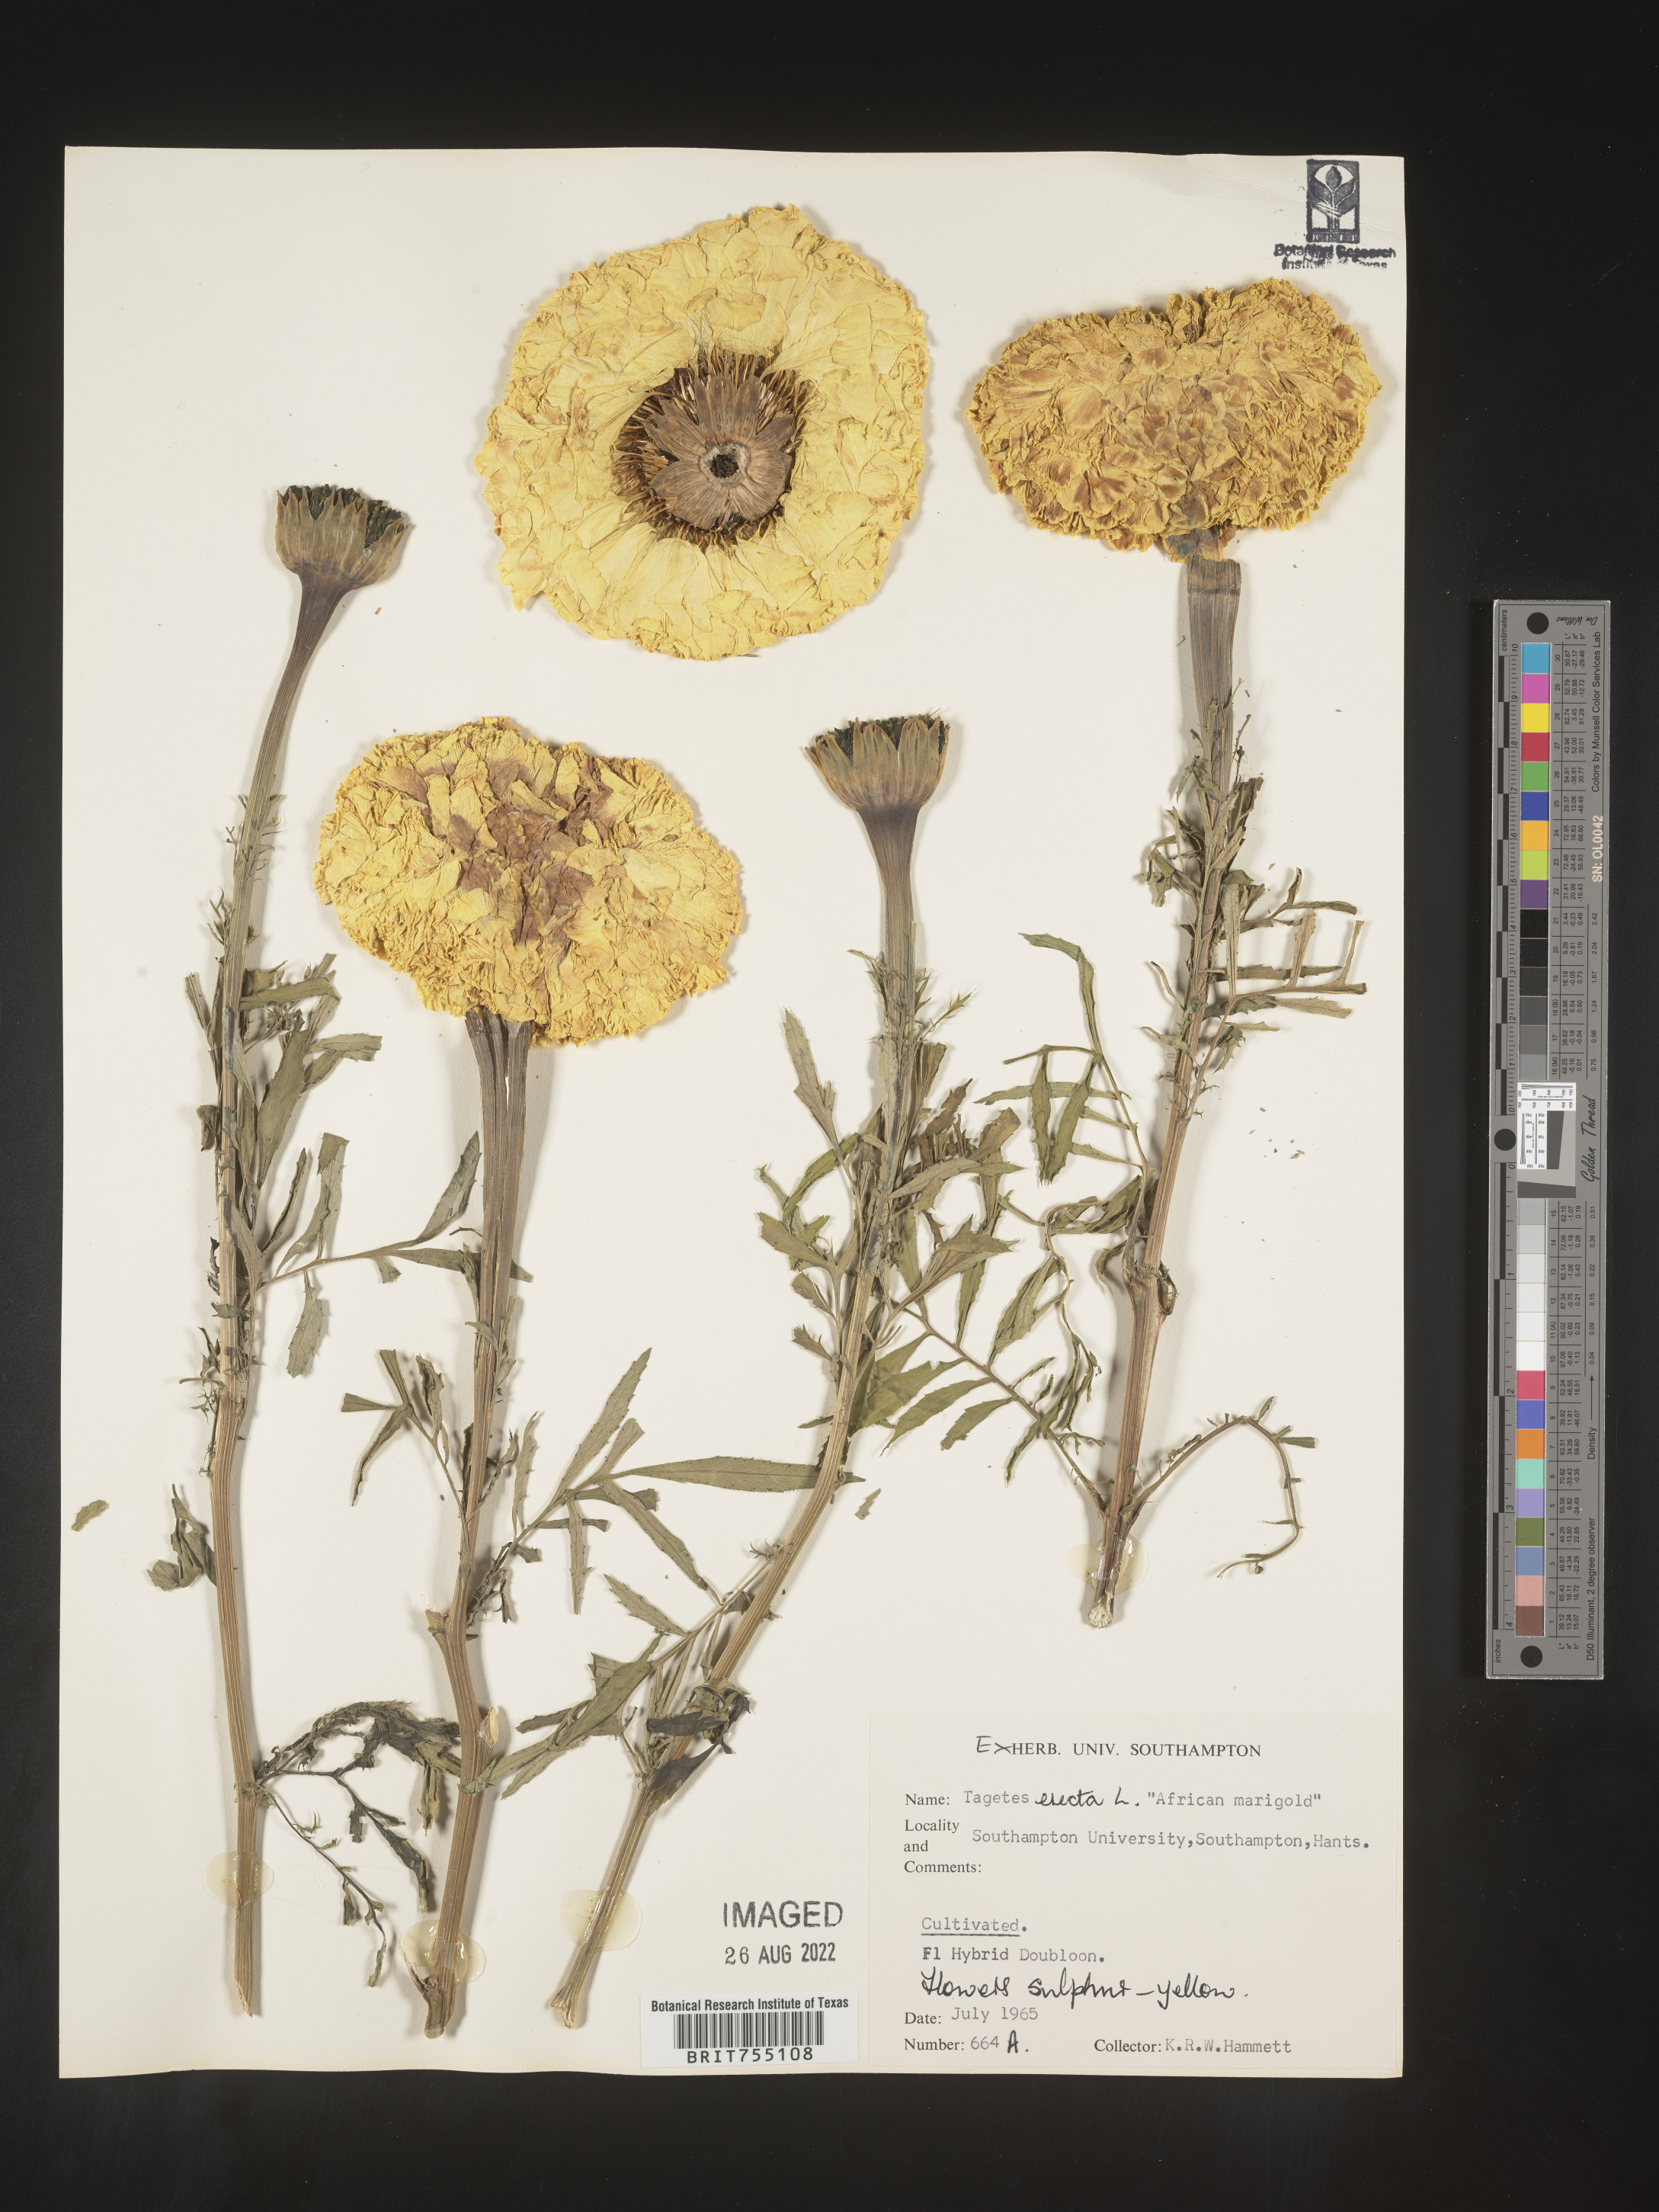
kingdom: Plantae
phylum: Tracheophyta
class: Magnoliopsida
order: Asterales
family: Asteraceae
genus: Tagetes
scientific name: Tagetes erecta
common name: African marigold
